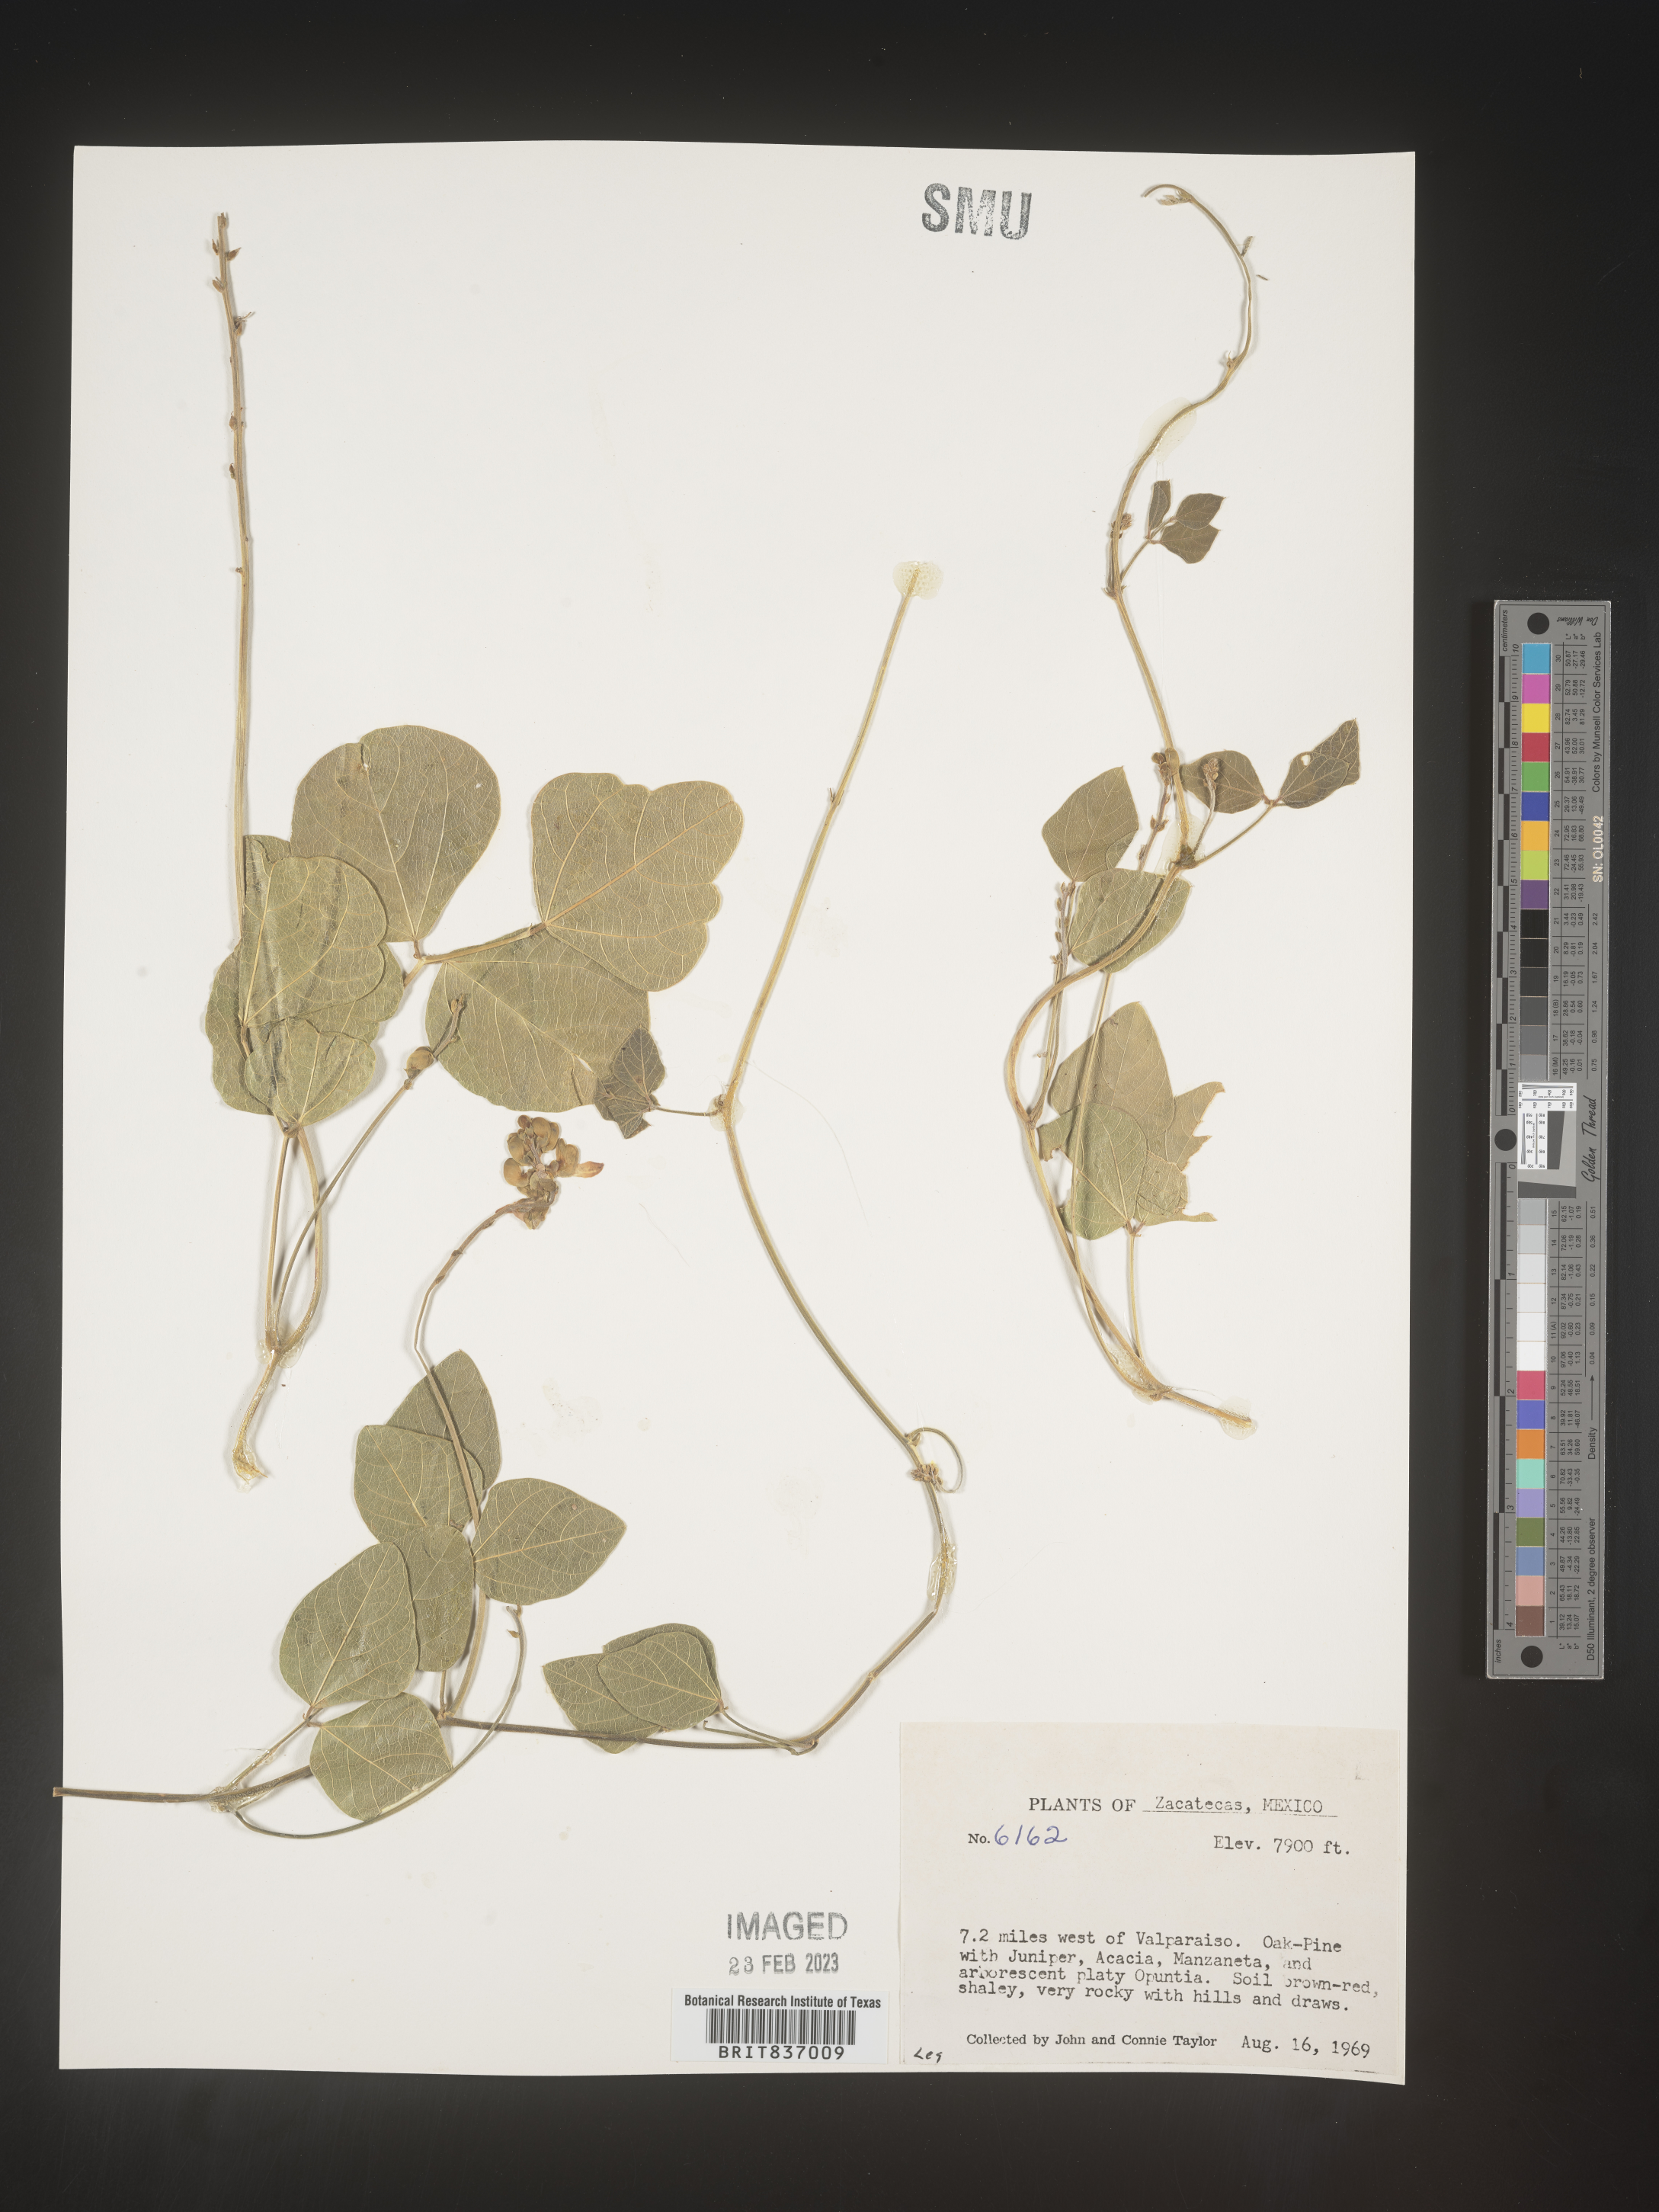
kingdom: Plantae
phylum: Tracheophyta
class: Magnoliopsida
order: Fabales
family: Fabaceae
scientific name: Fabaceae
